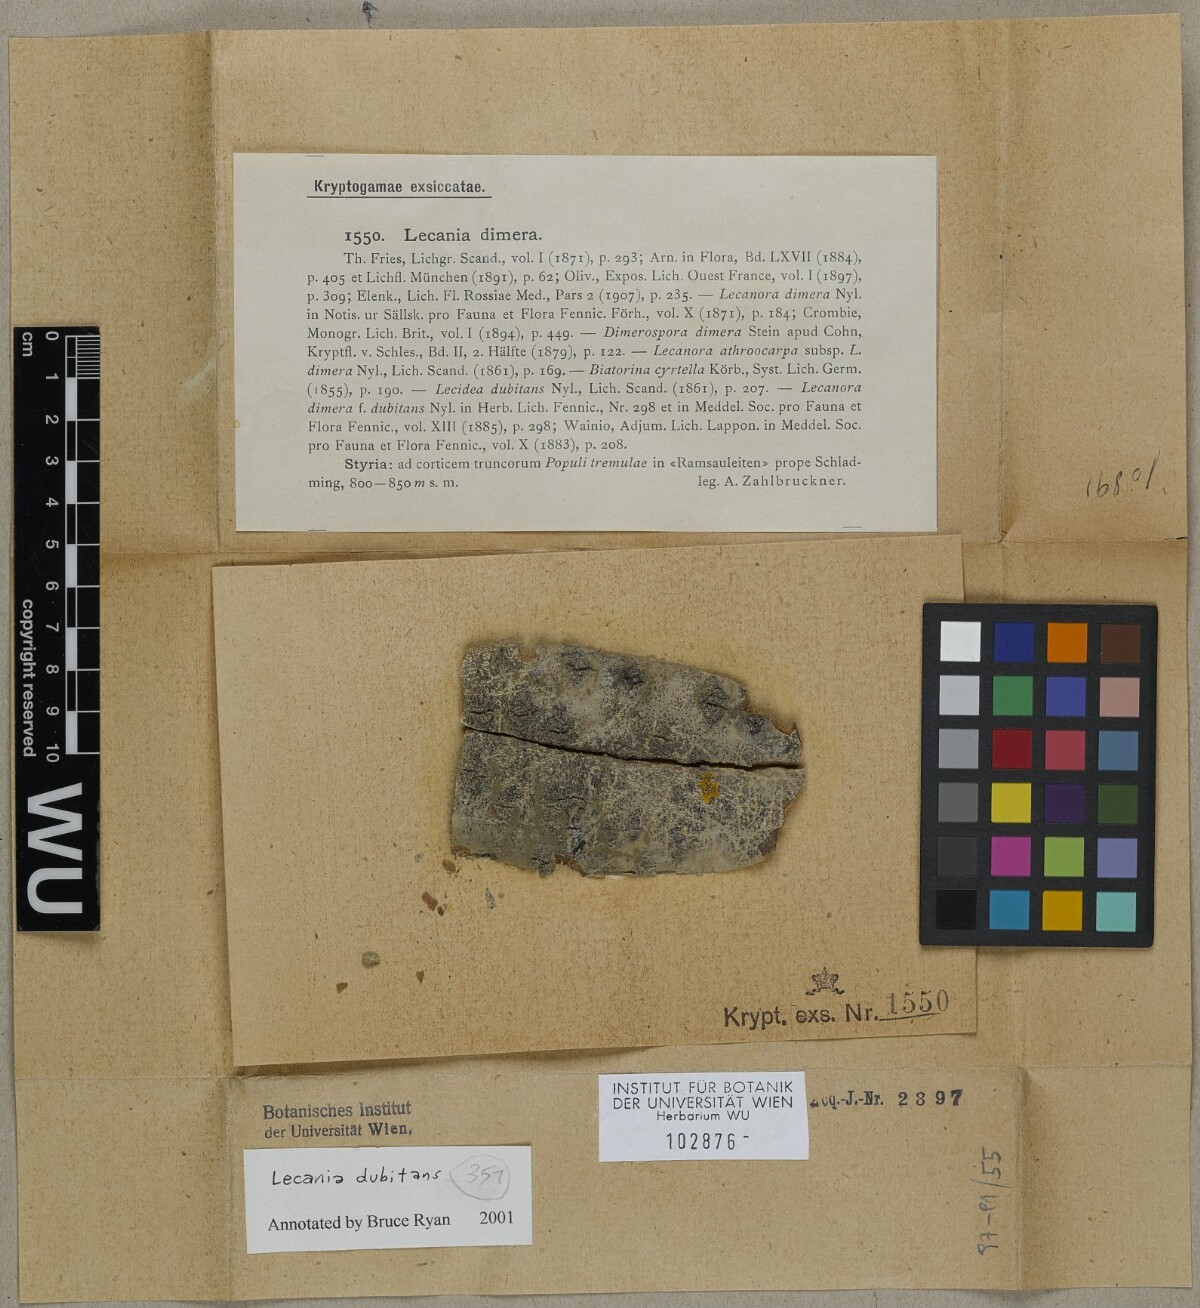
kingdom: Fungi
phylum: Ascomycota
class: Lecanoromycetes
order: Lecanorales
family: Ramalinaceae
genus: Lecania
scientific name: Lecania dubitans
